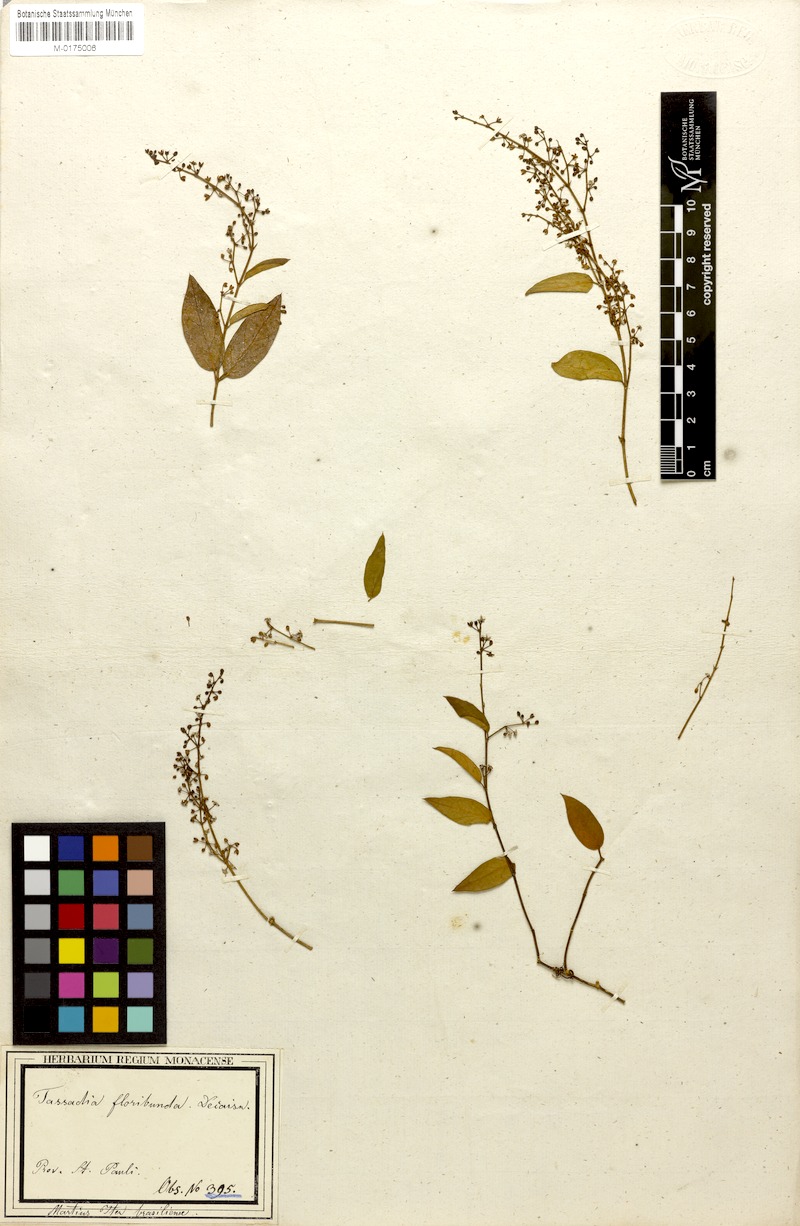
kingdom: Plantae
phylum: Tracheophyta
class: Magnoliopsida
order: Gentianales
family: Apocynaceae
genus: Tassadia
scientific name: Tassadia obovata
